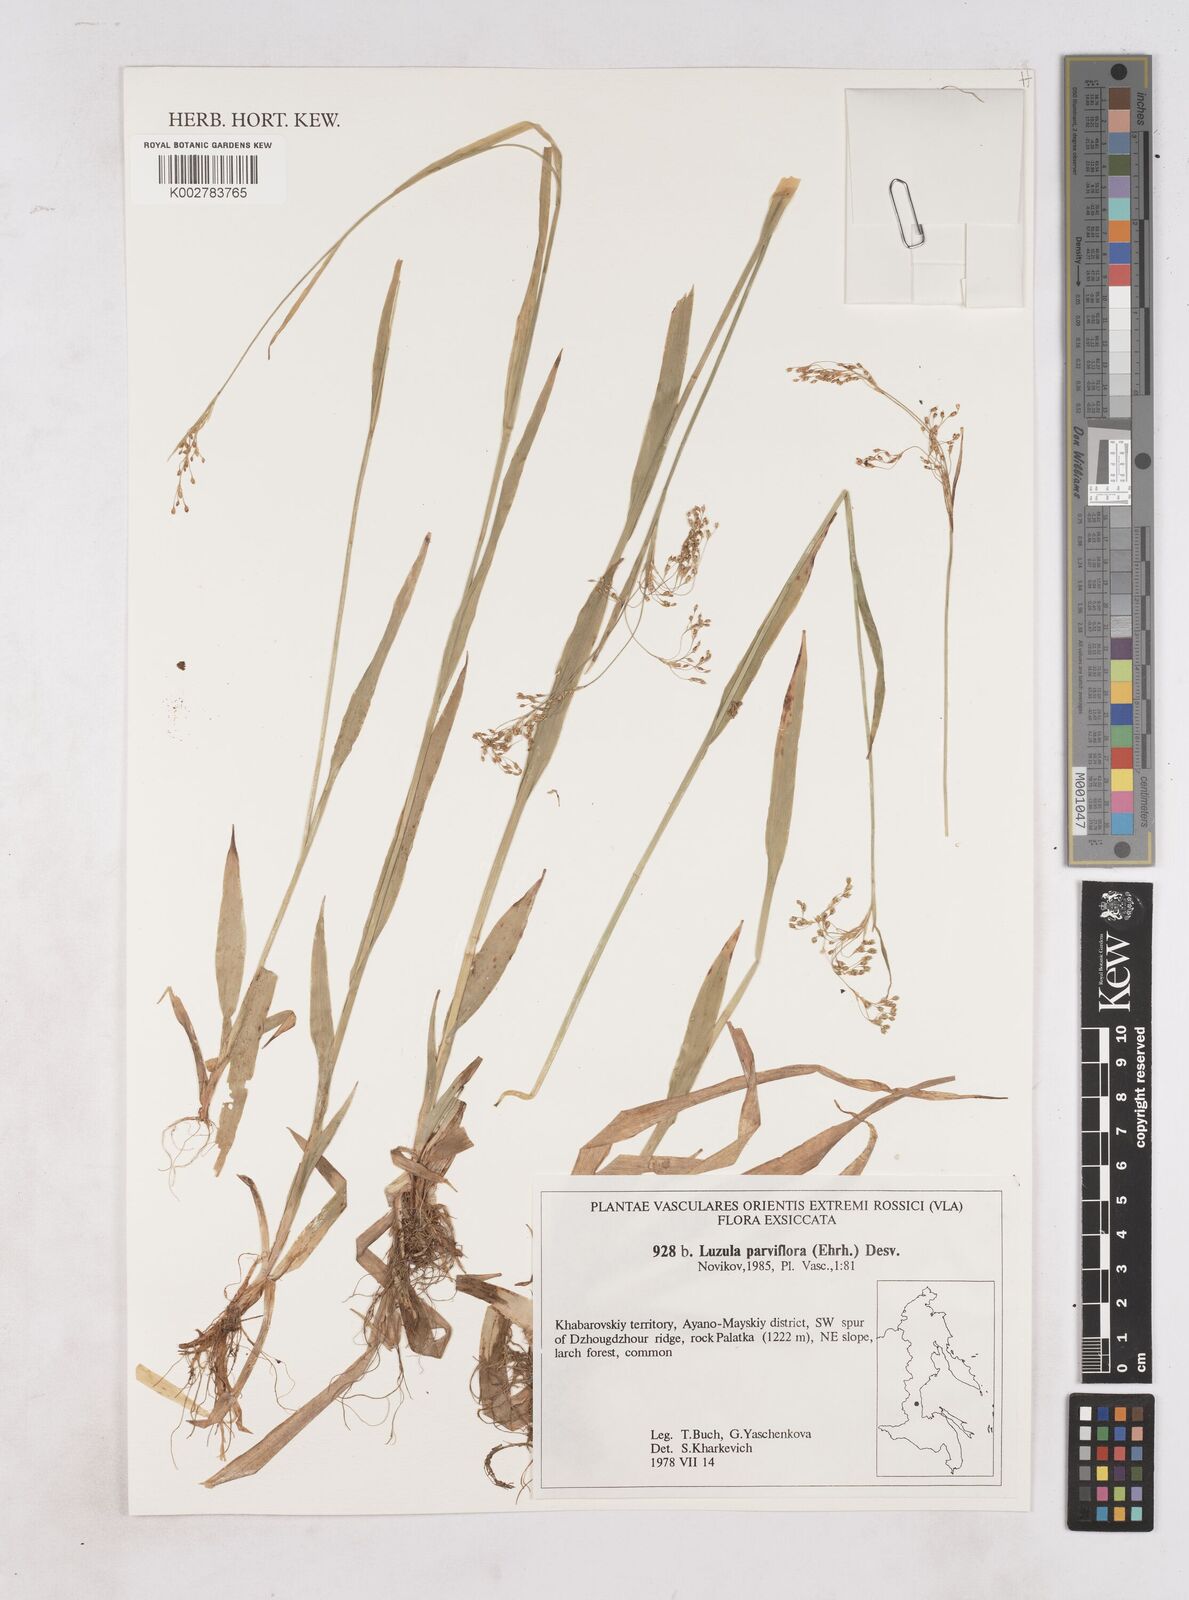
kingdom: Plantae
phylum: Tracheophyta
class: Liliopsida
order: Poales
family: Juncaceae
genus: Luzula
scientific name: Luzula parviflora
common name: Millet woodrush
